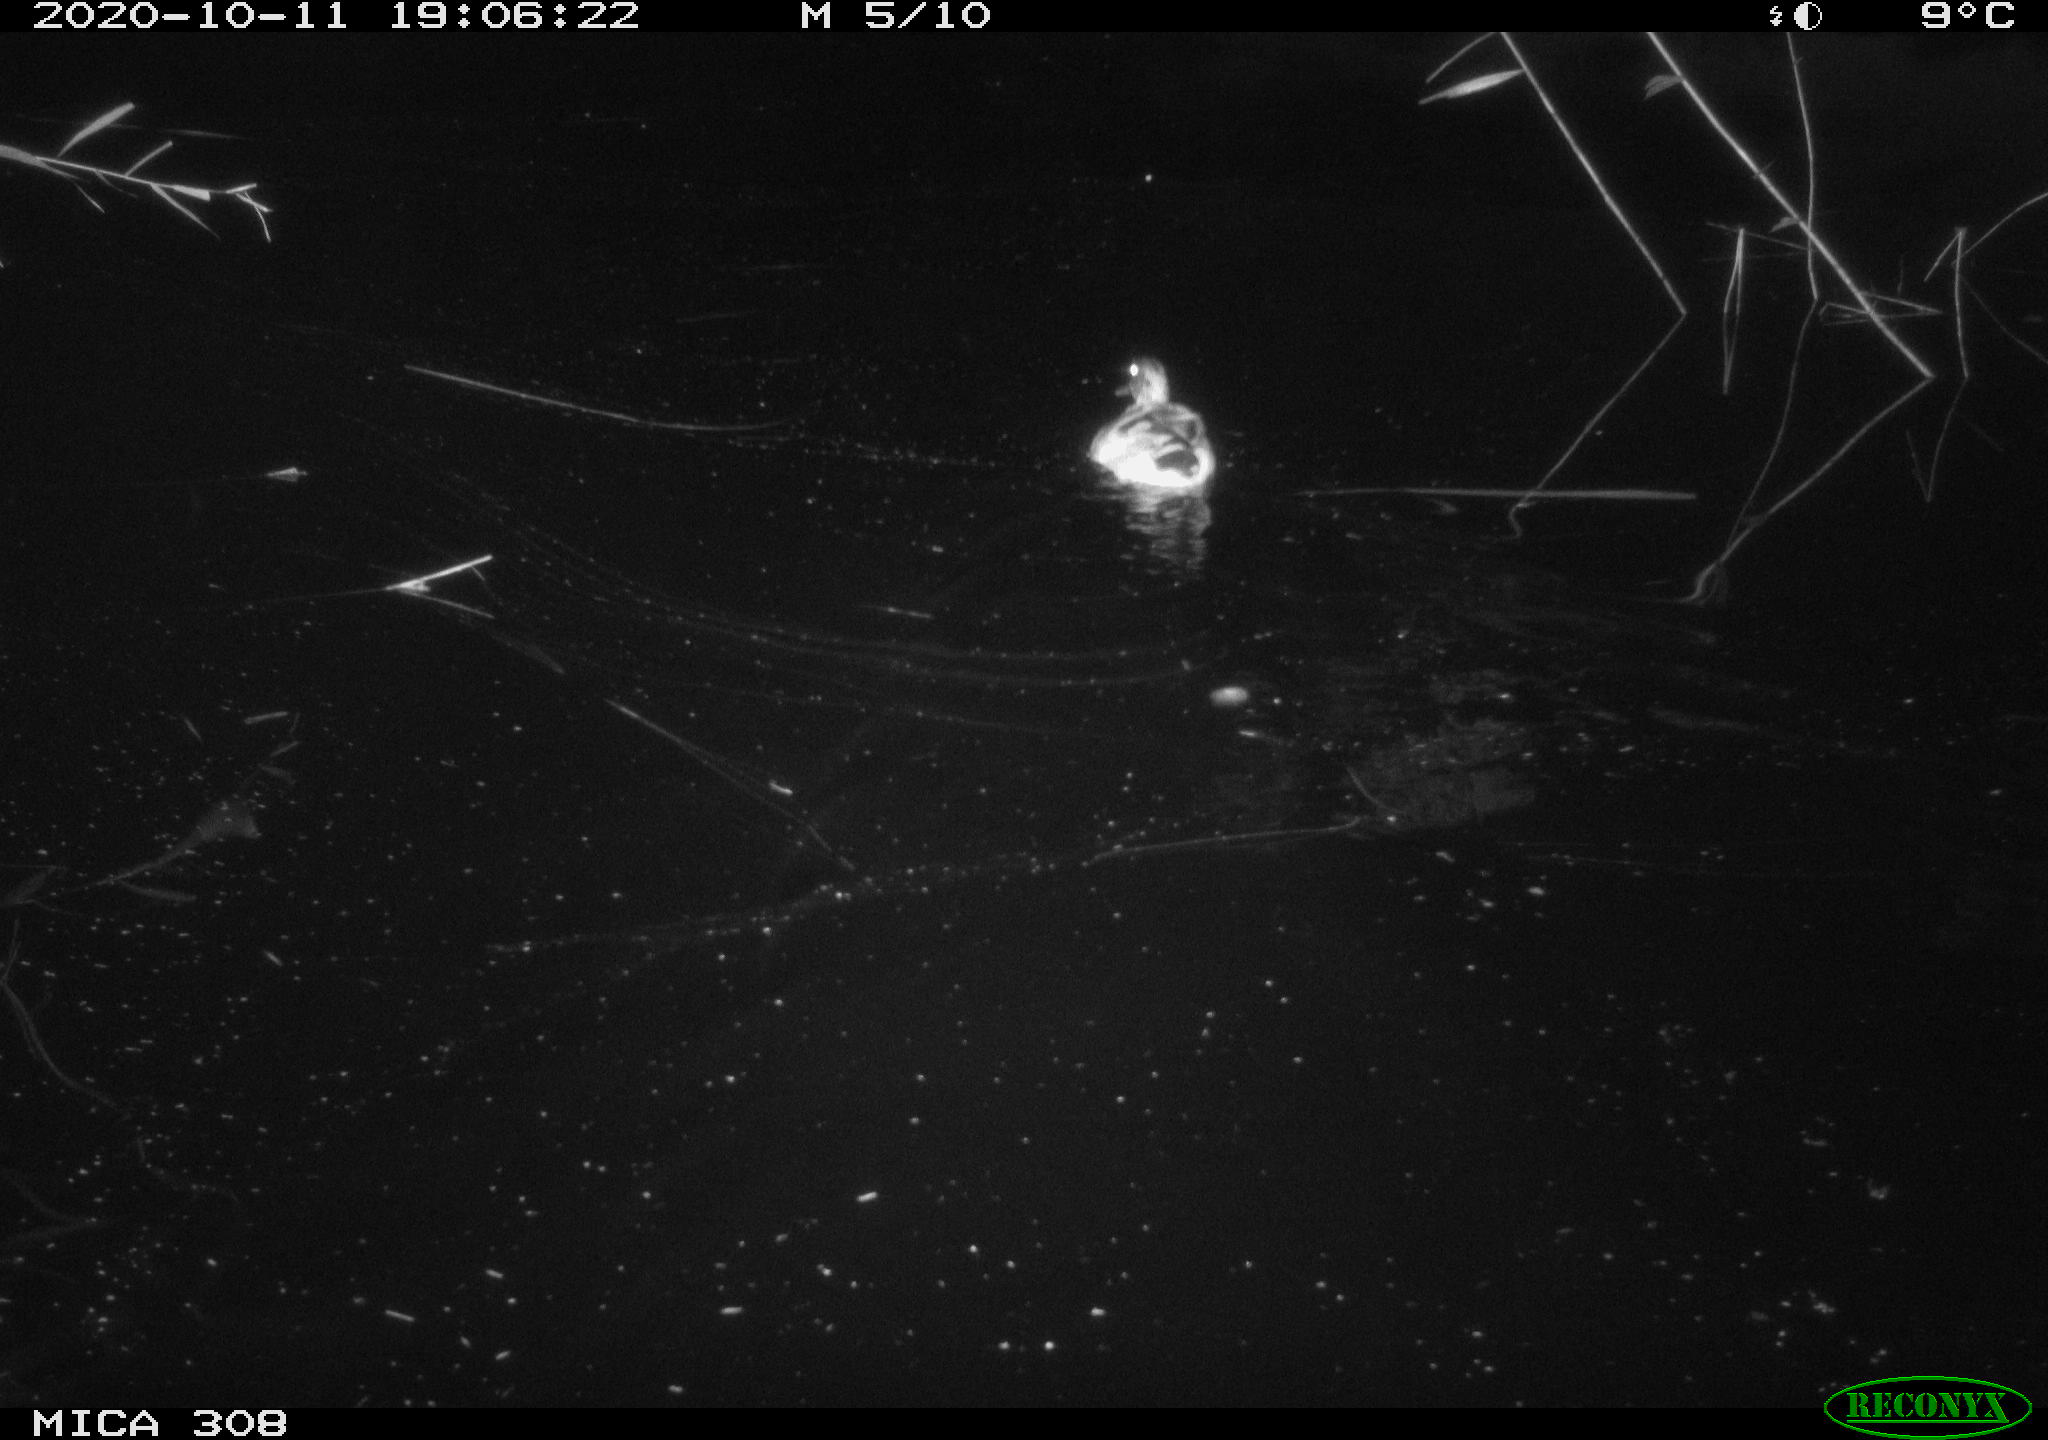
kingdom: Animalia
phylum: Chordata
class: Aves
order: Anseriformes
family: Anatidae
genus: Anas
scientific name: Anas platyrhynchos
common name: Mallard
